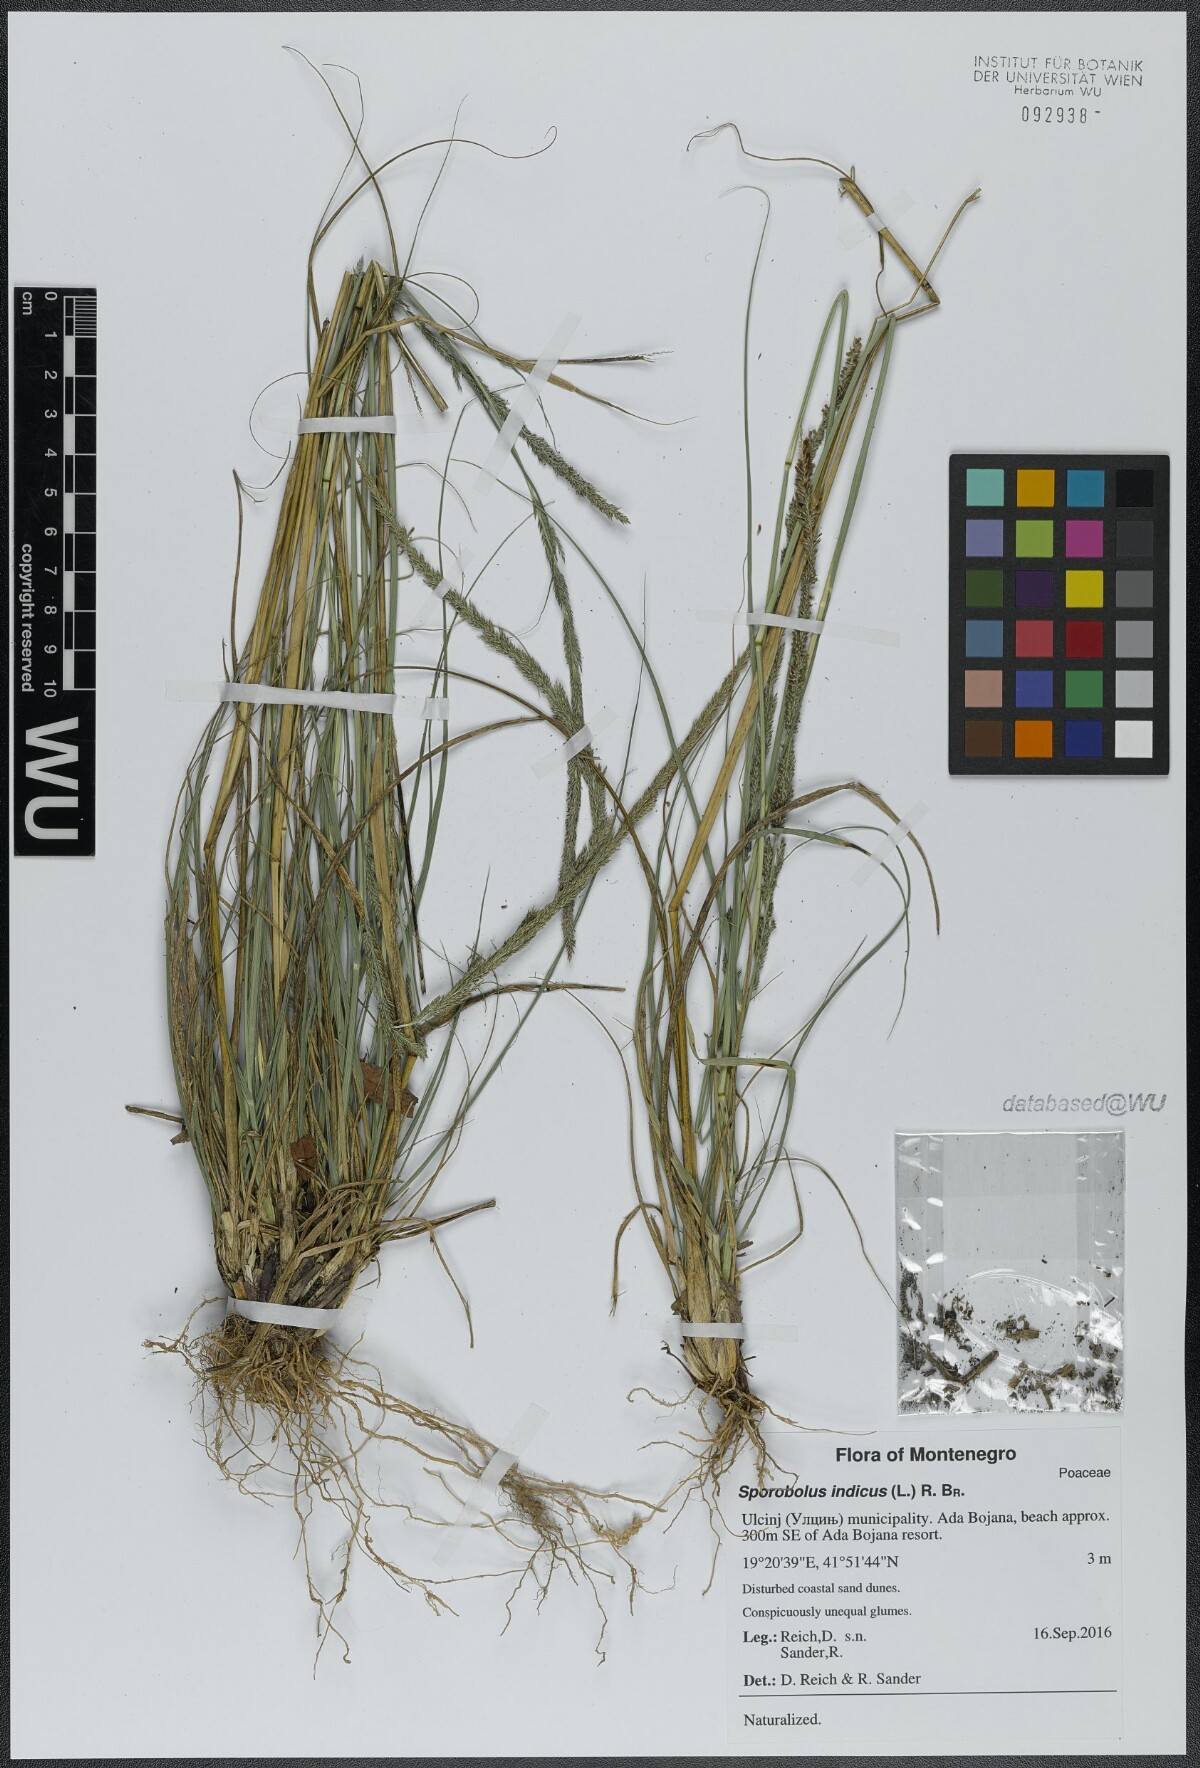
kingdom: Plantae
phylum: Tracheophyta
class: Liliopsida
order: Poales
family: Poaceae
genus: Sporobolus
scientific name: Sporobolus indicus
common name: Smut grass
